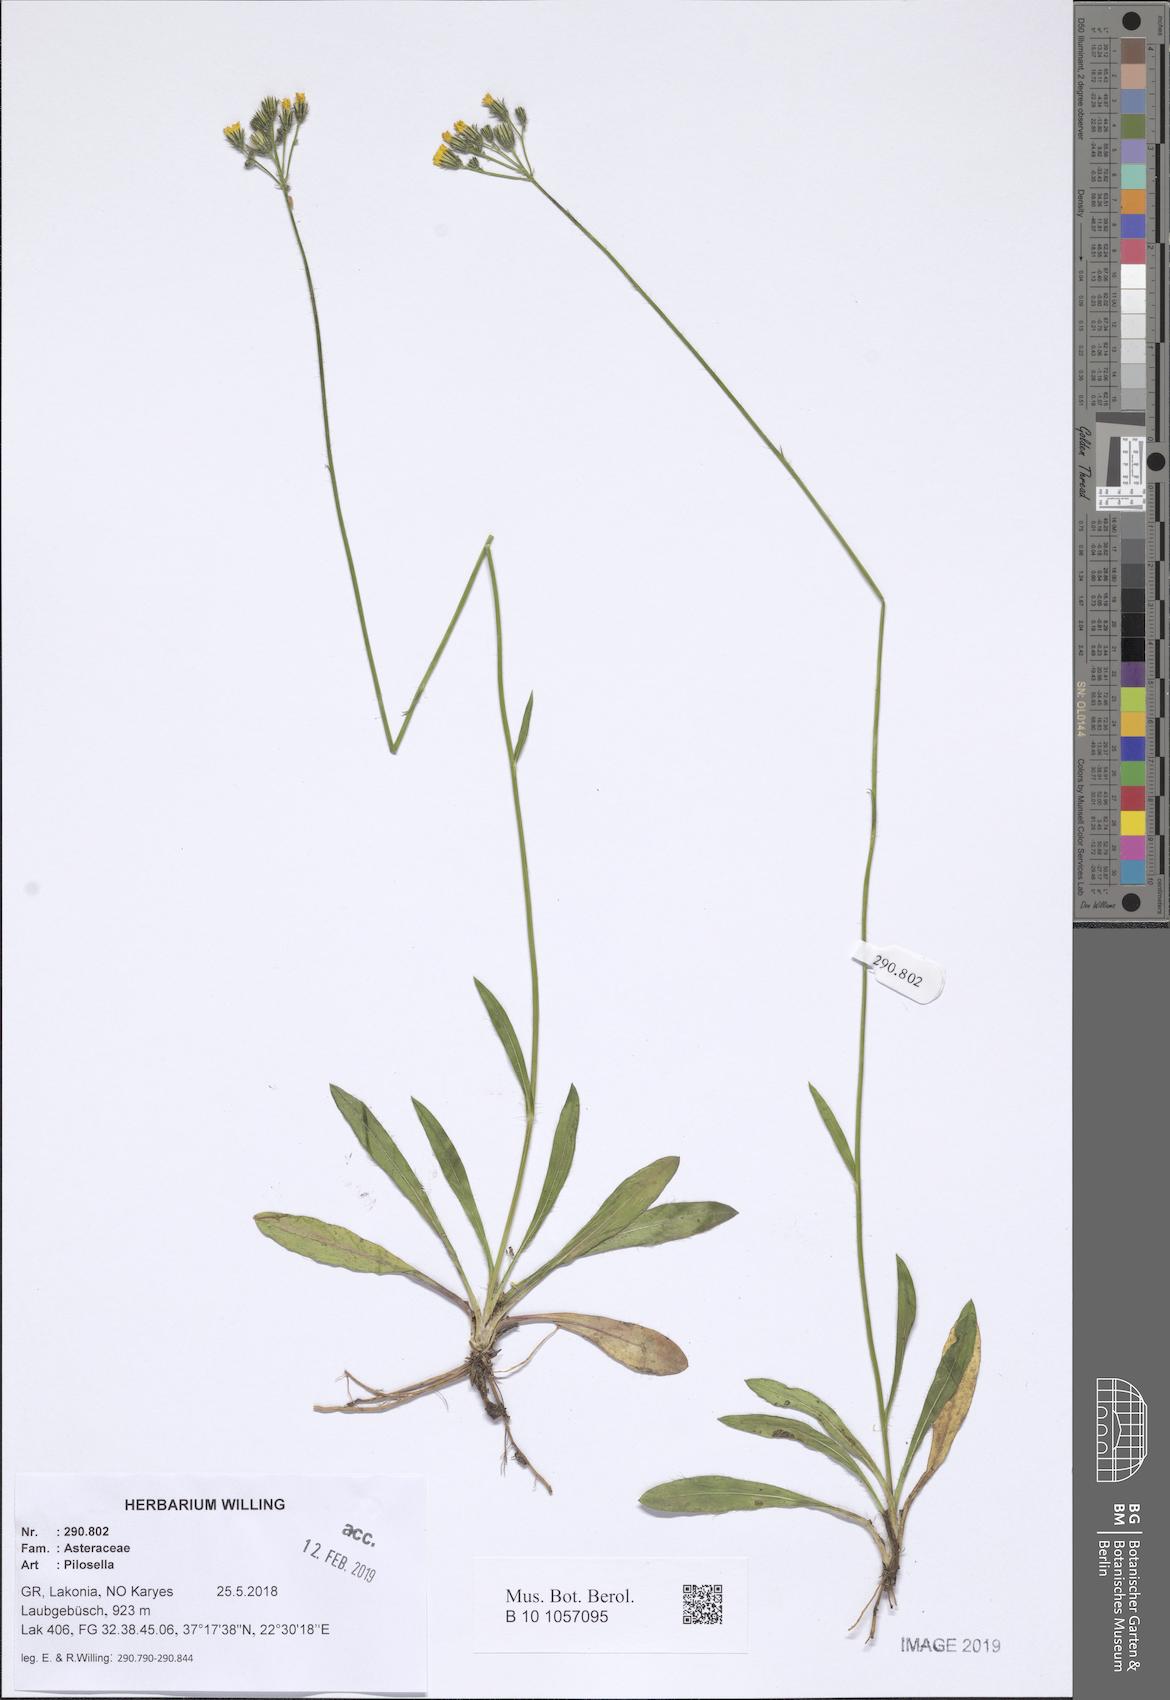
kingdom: Plantae
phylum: Tracheophyta
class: Magnoliopsida
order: Asterales
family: Asteraceae
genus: Pilosella
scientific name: Pilosella
